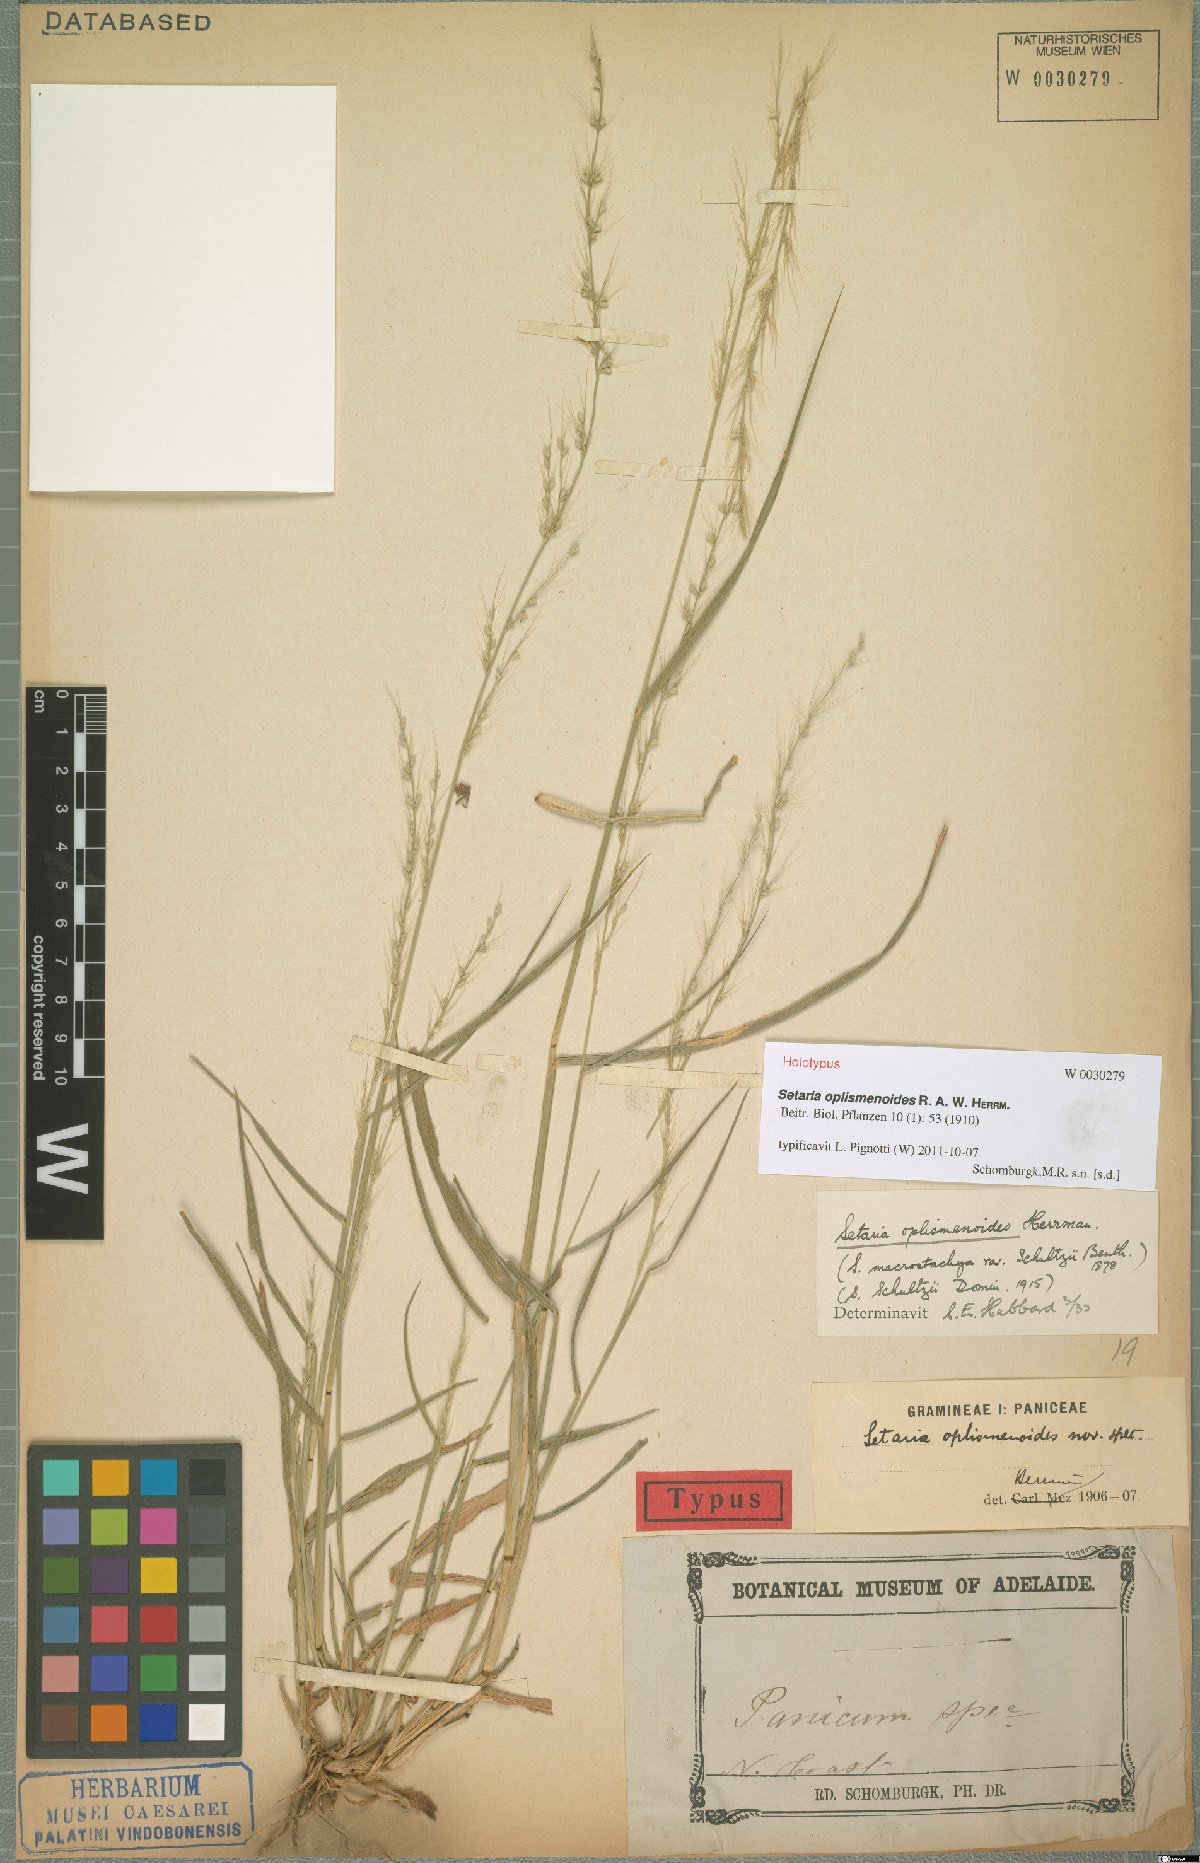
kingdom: Plantae
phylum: Tracheophyta
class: Liliopsida
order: Poales
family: Poaceae
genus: Setaria
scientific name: Setaria oplismenoides
